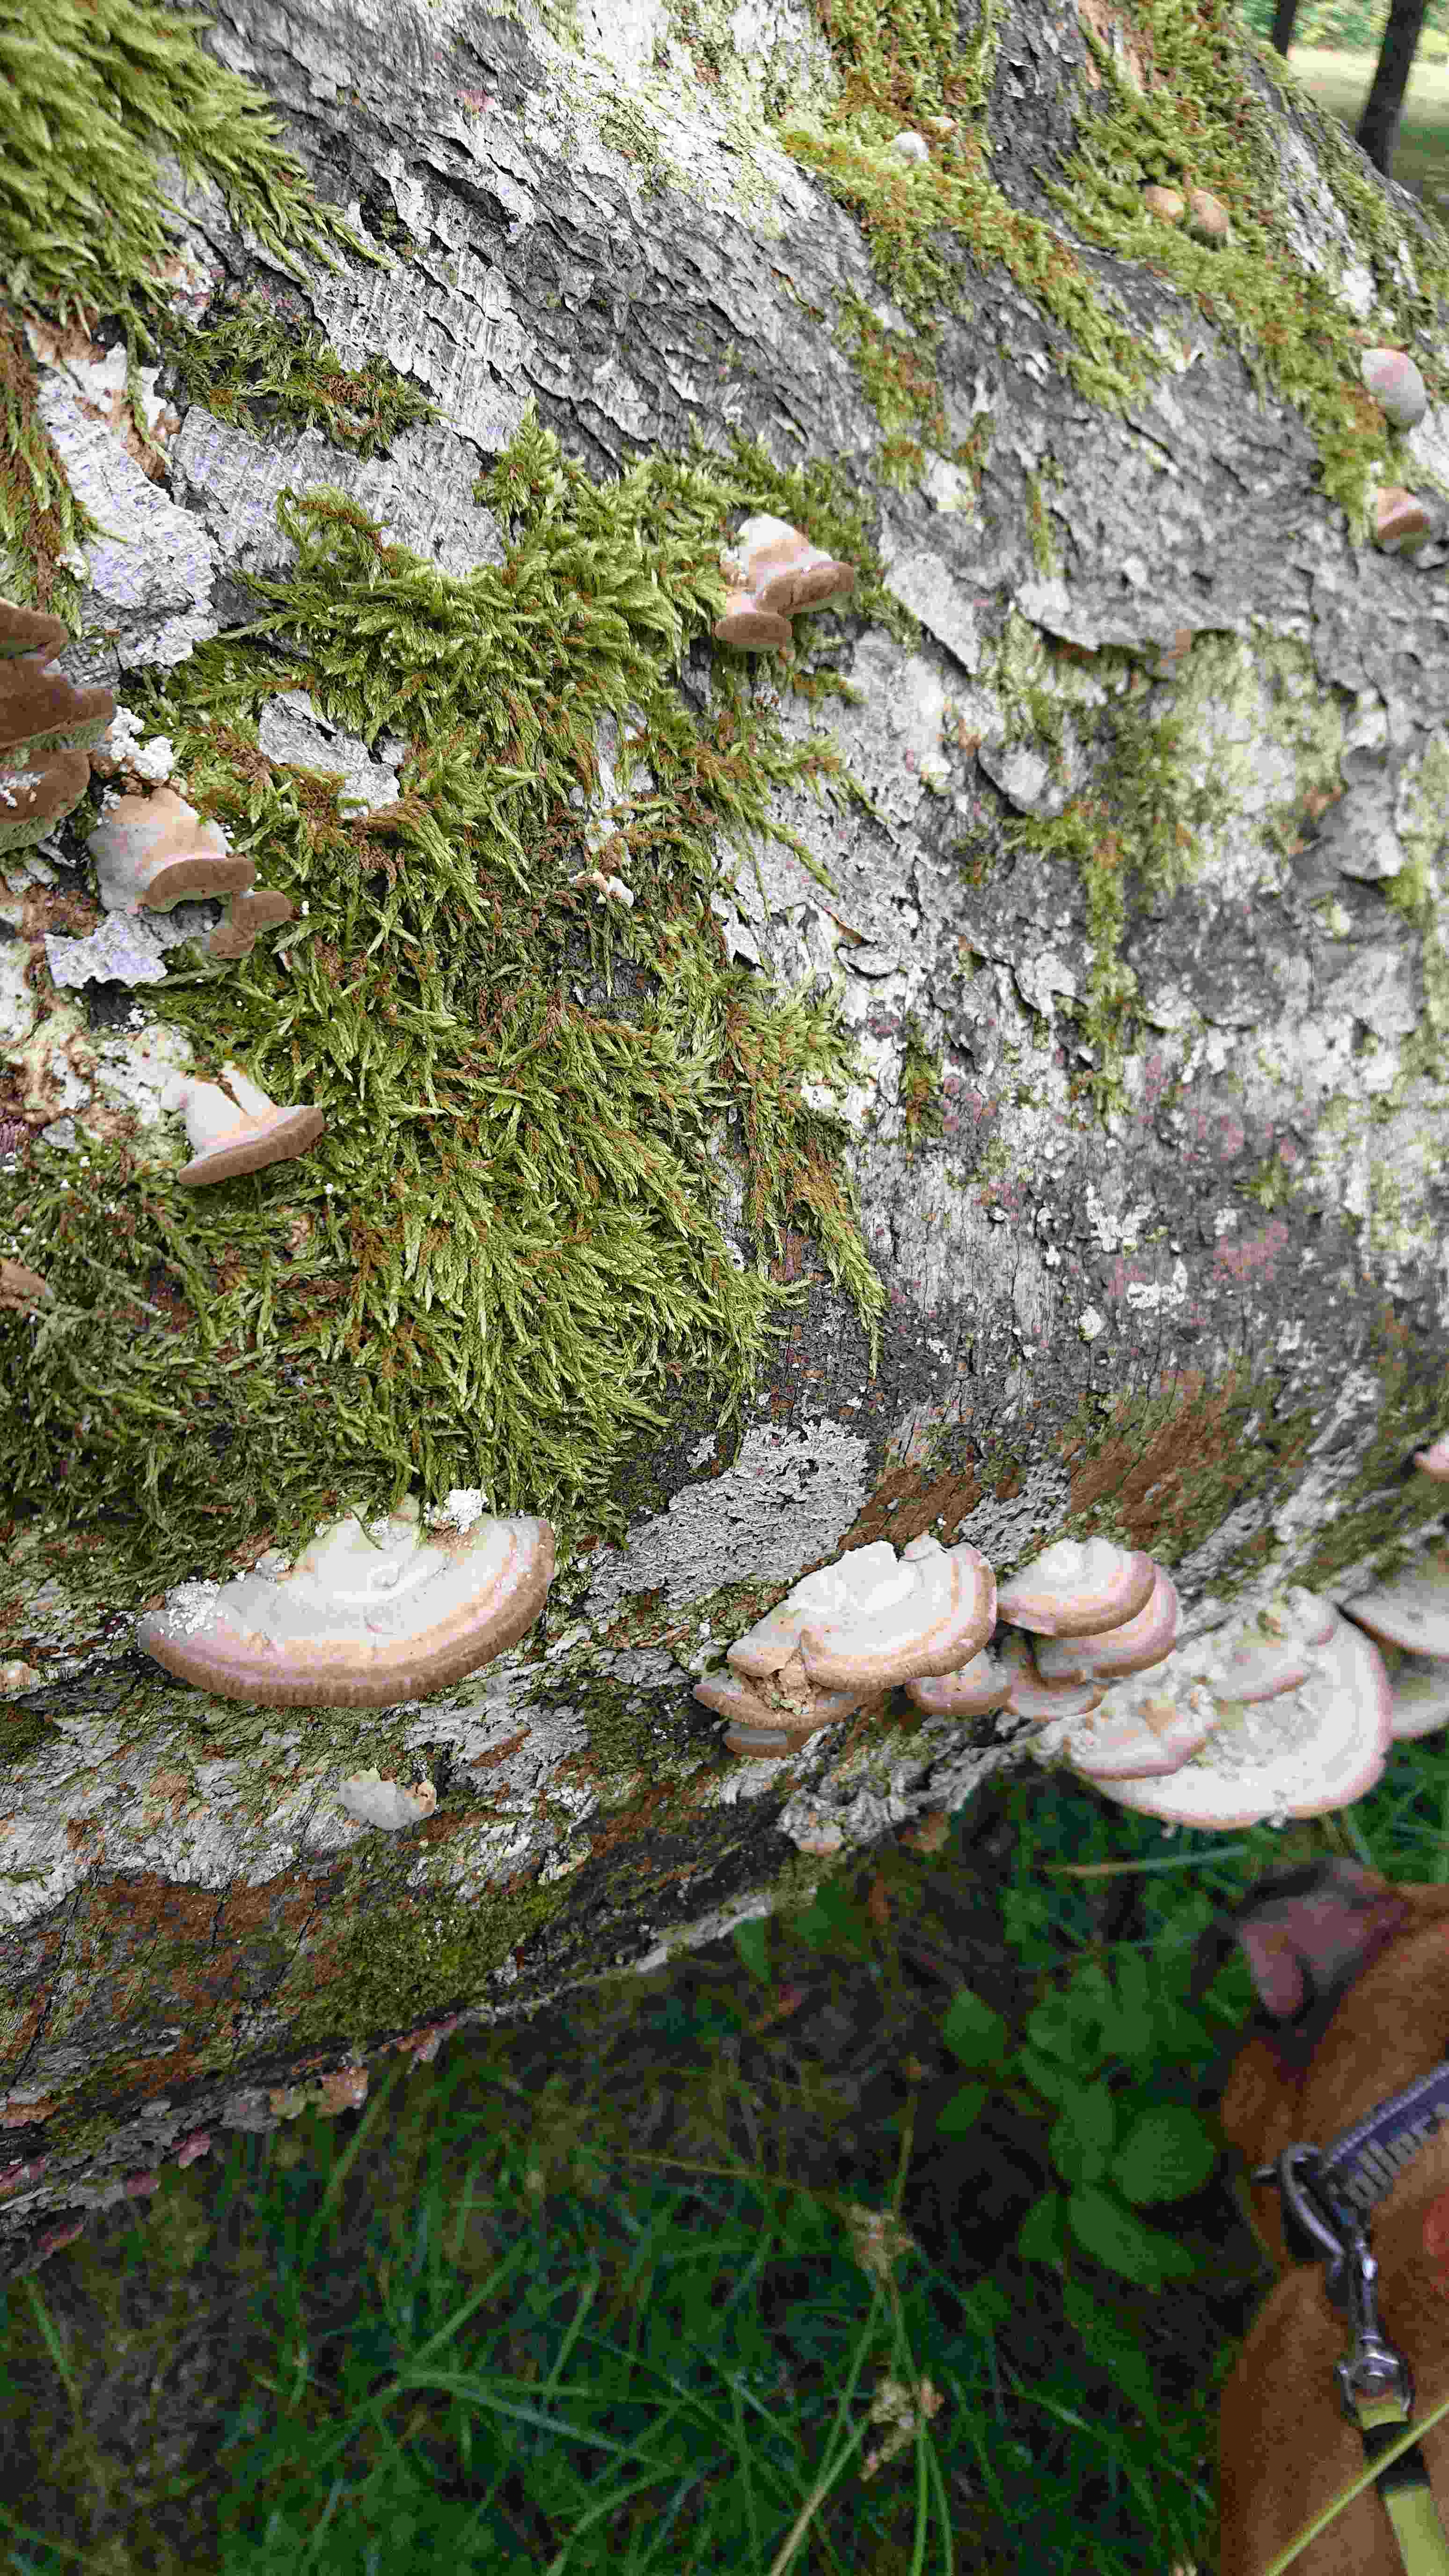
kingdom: Fungi
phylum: Basidiomycota
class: Agaricomycetes
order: Polyporales
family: Polyporaceae
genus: Trametes
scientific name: Trametes gibbosa
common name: puklet læderporesvamp
